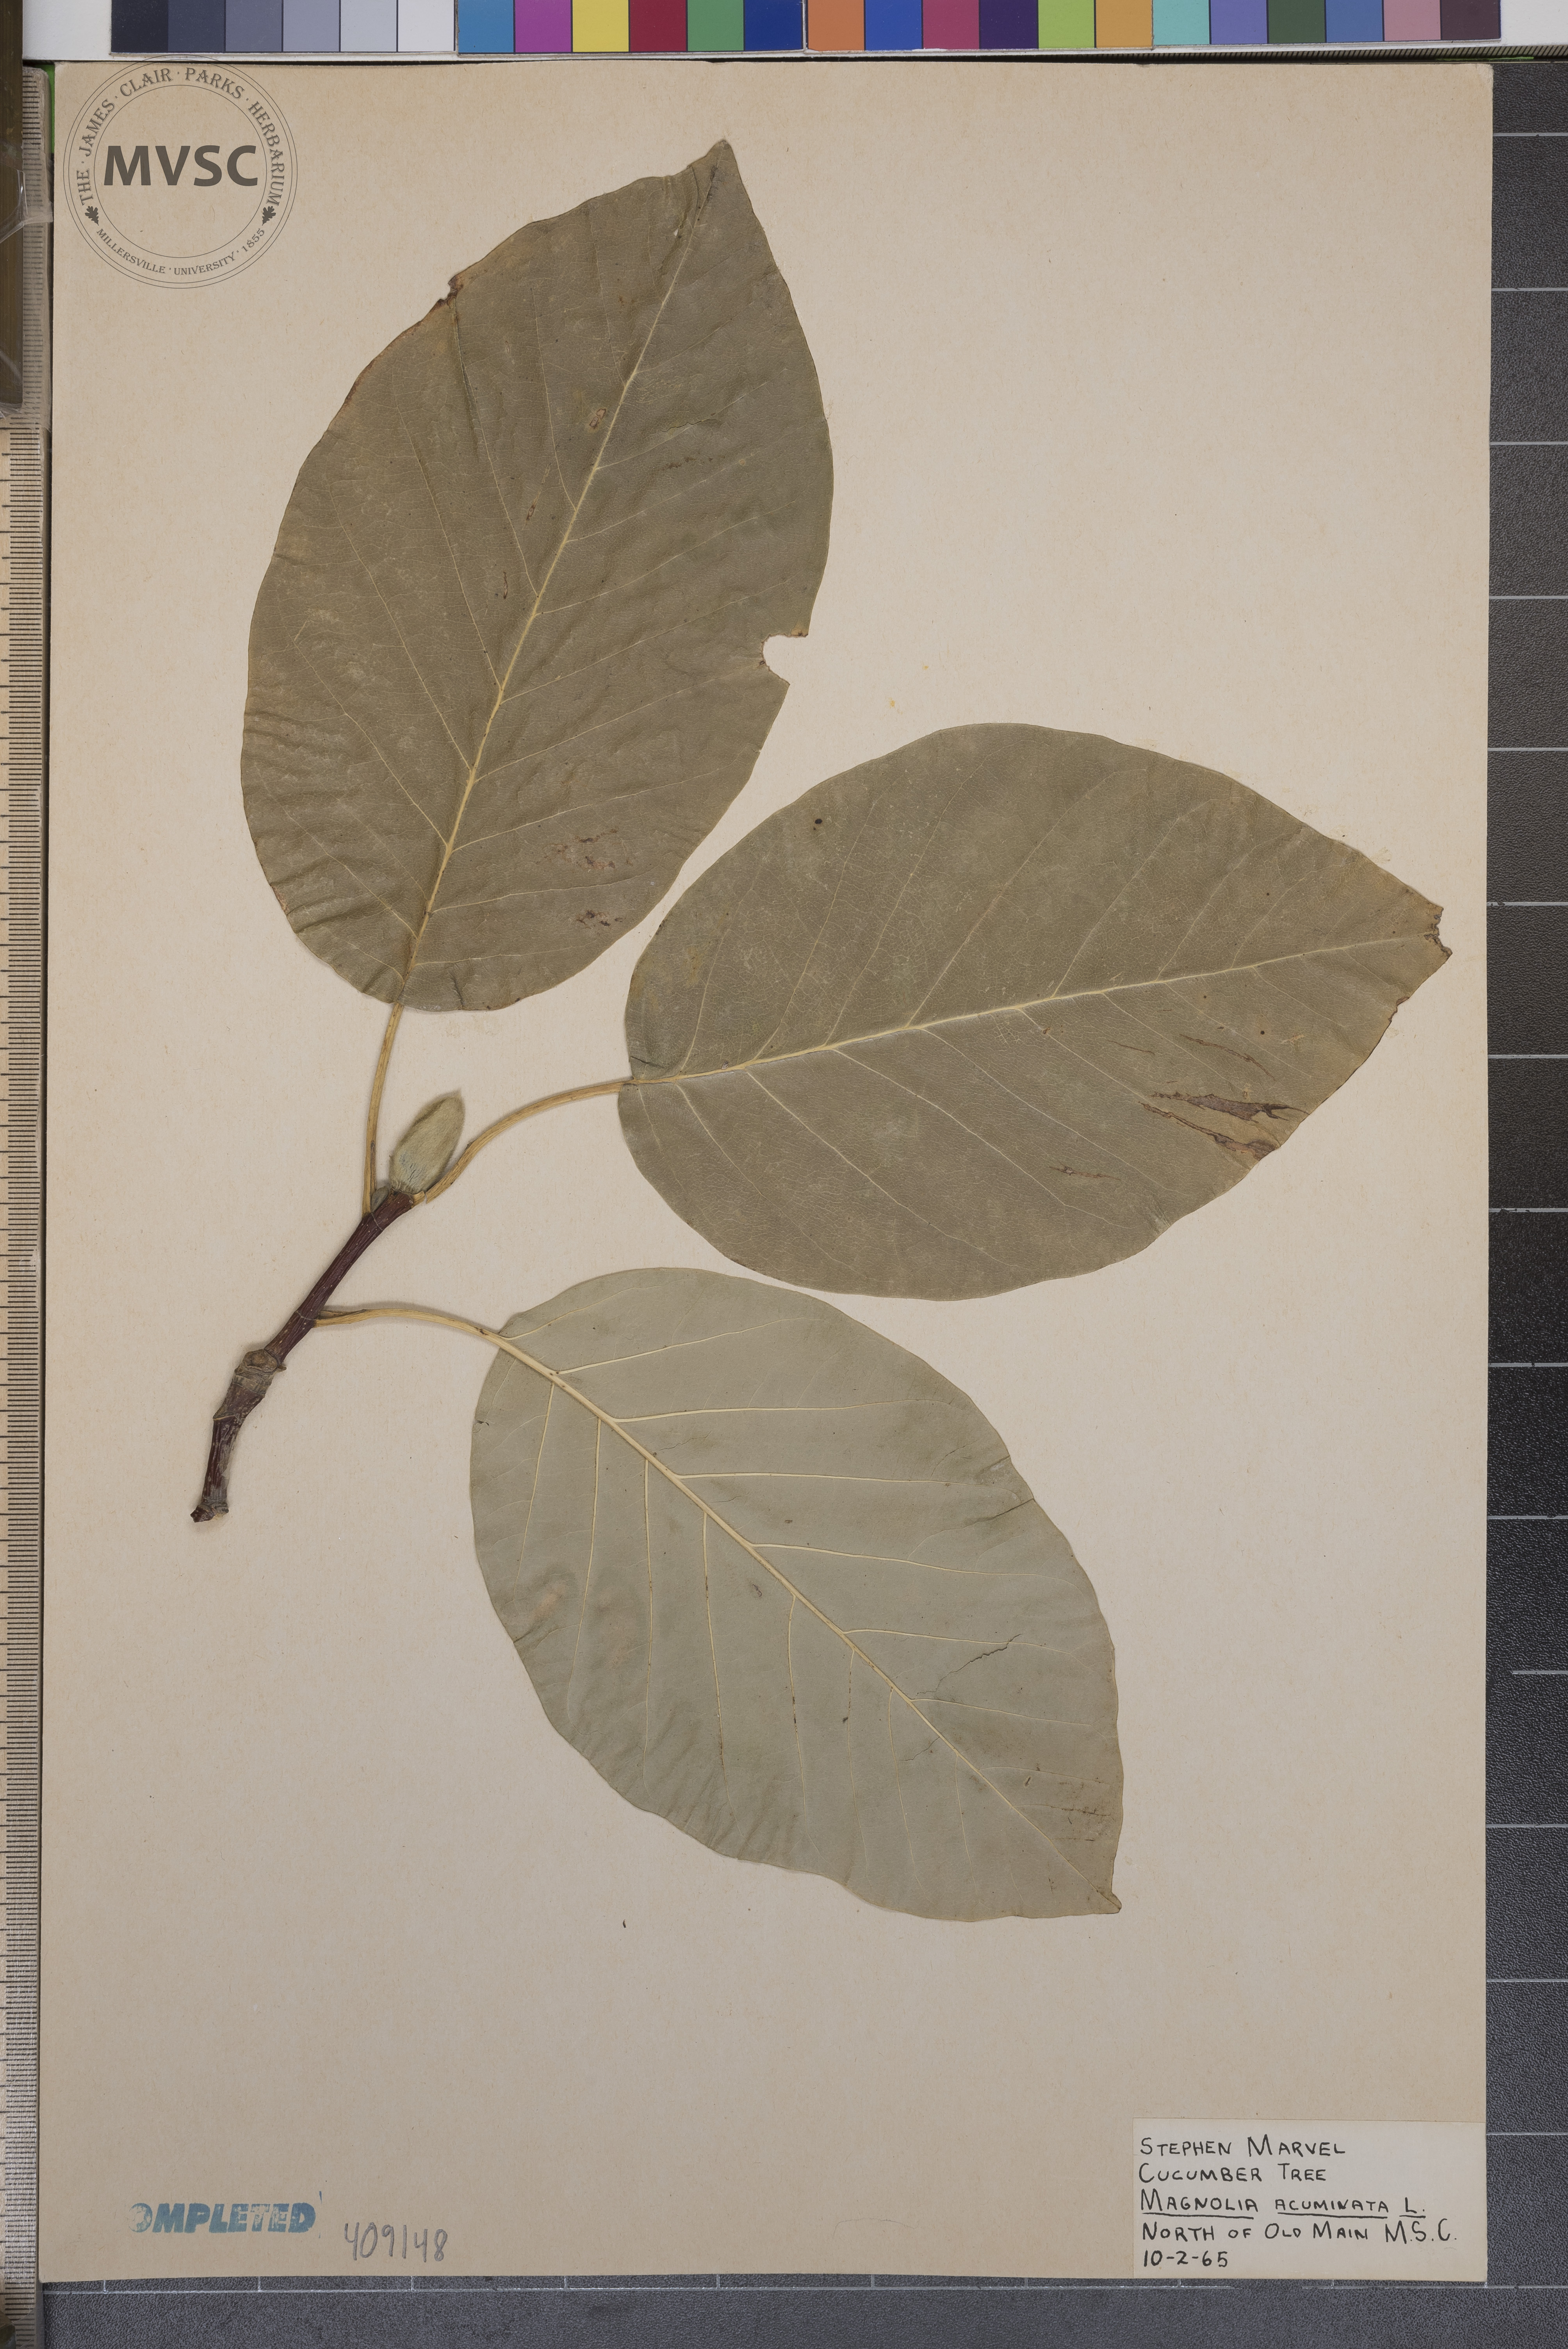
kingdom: Plantae
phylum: Tracheophyta
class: Magnoliopsida
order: Magnoliales
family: Magnoliaceae
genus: Magnolia
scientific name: Magnolia acuminata
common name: Cucumber magnolia
